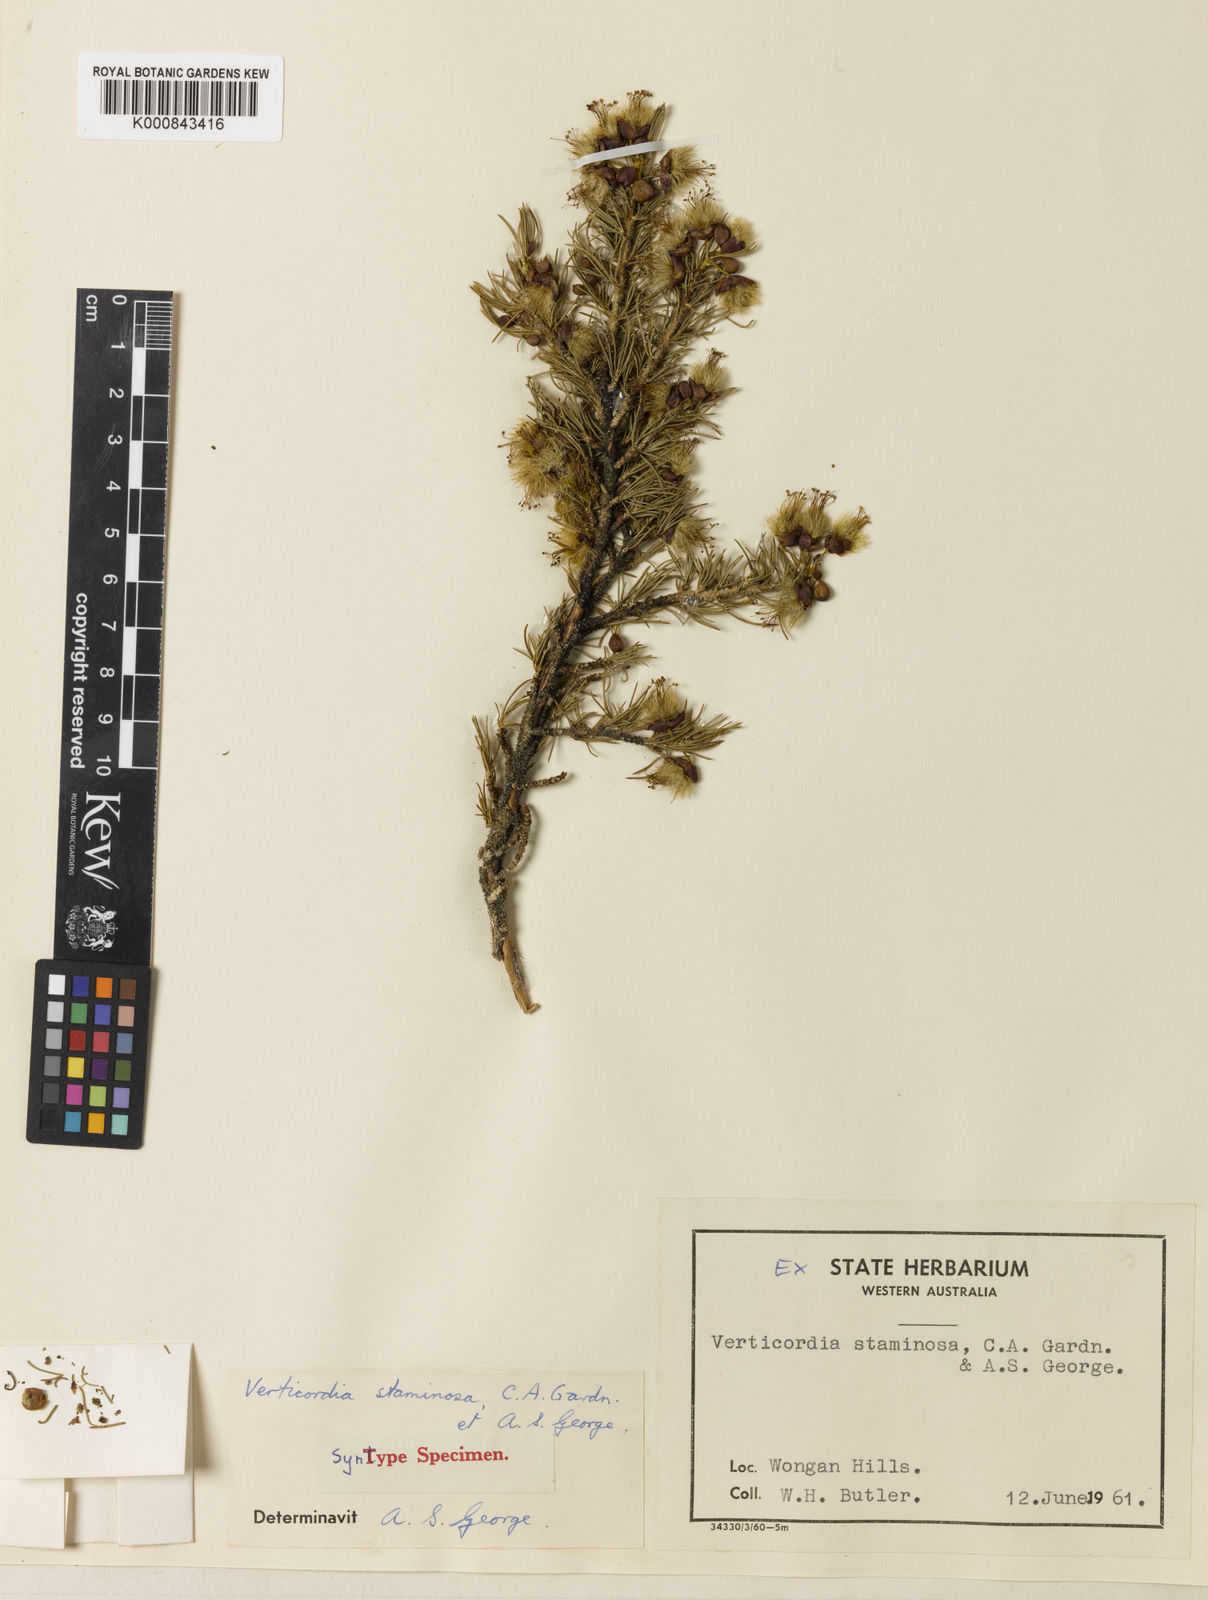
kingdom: Plantae
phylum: Tracheophyta
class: Magnoliopsida
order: Myrtales
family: Myrtaceae
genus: Verticordia
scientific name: Verticordia staminosa
